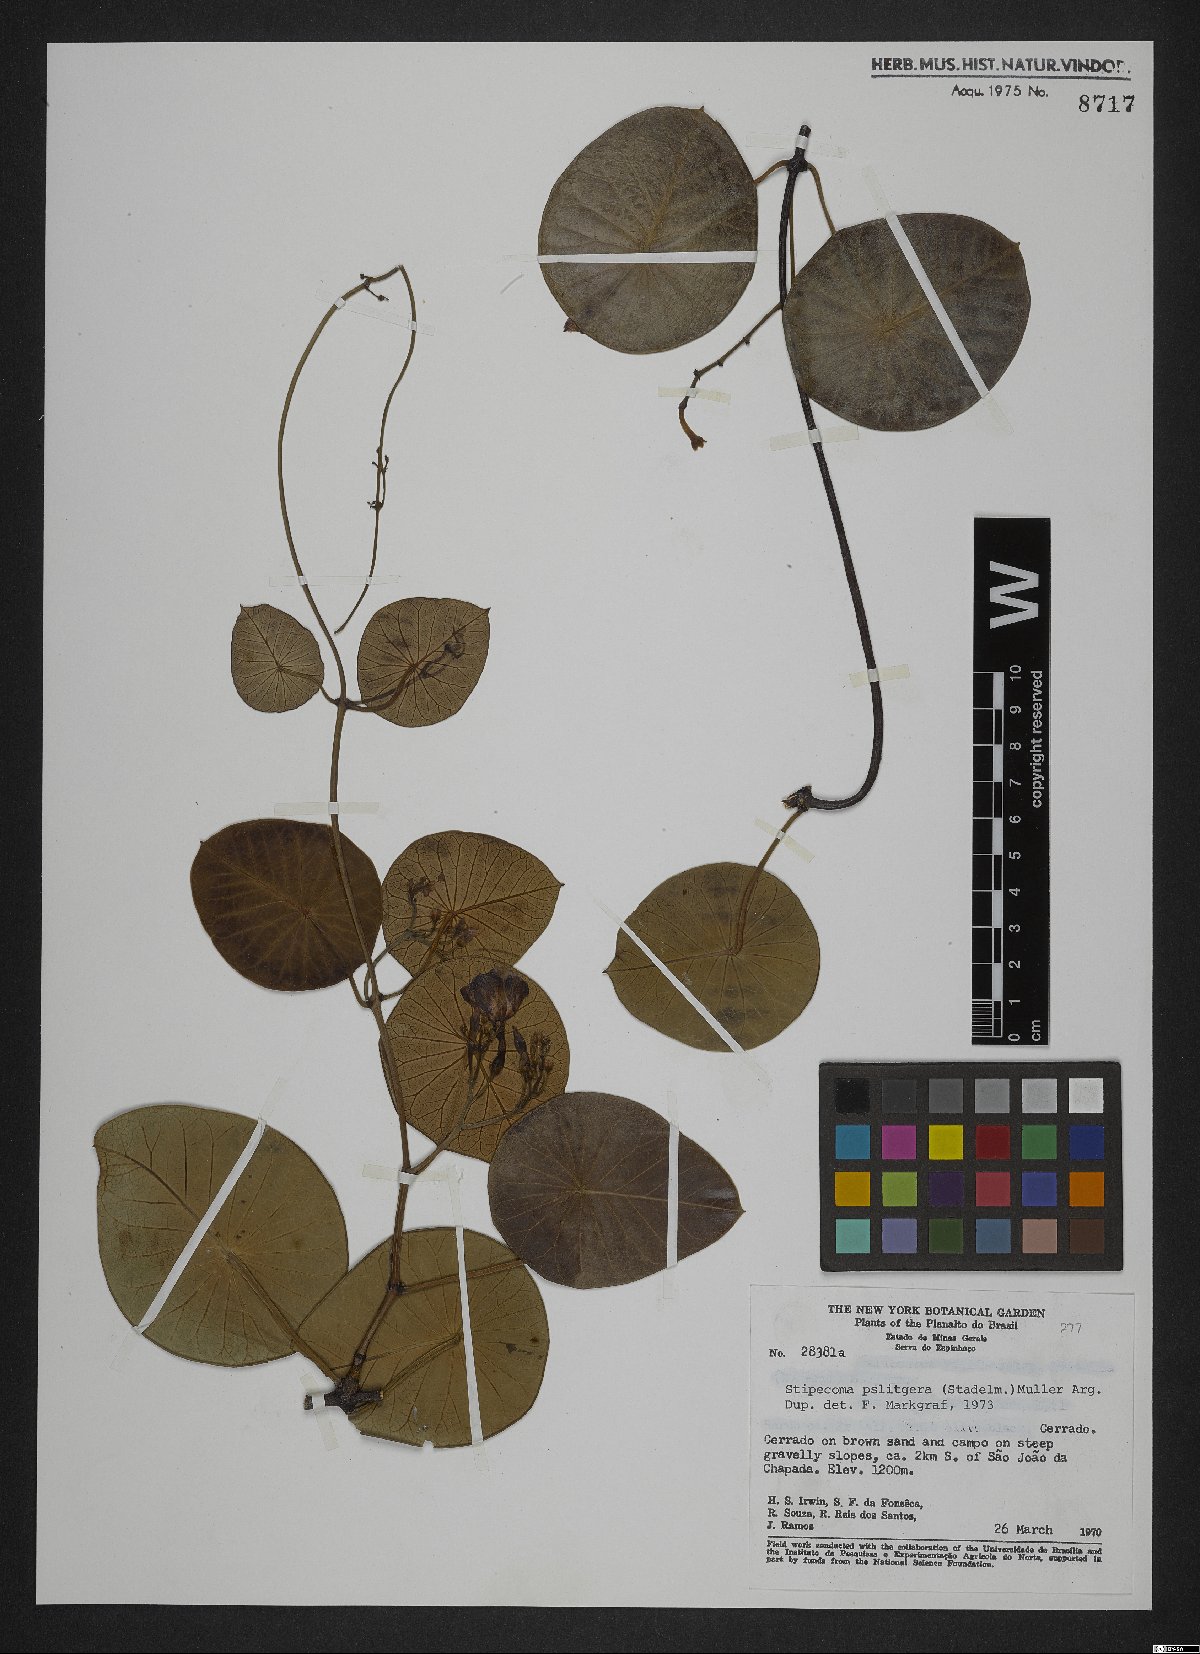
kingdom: Plantae
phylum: Tracheophyta
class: Magnoliopsida
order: Gentianales
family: Apocynaceae
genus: Stipecoma
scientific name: Stipecoma peltigera
